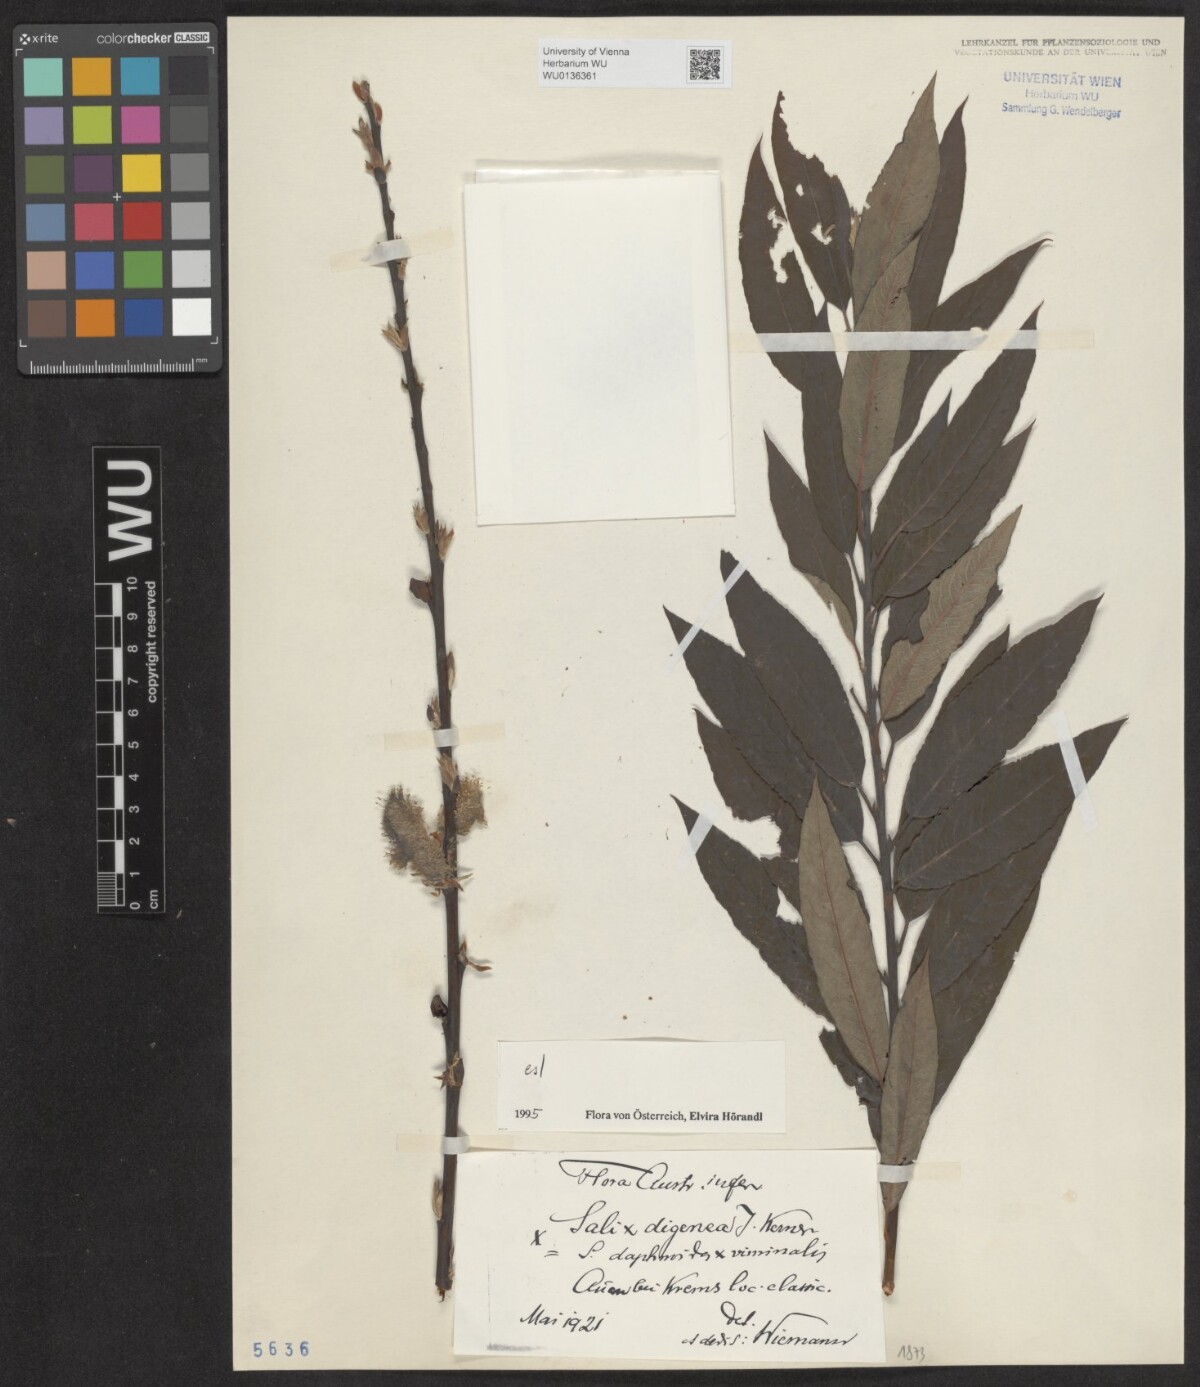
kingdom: Plantae
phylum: Tracheophyta
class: Magnoliopsida
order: Malpighiales
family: Salicaceae
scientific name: Salicaceae
